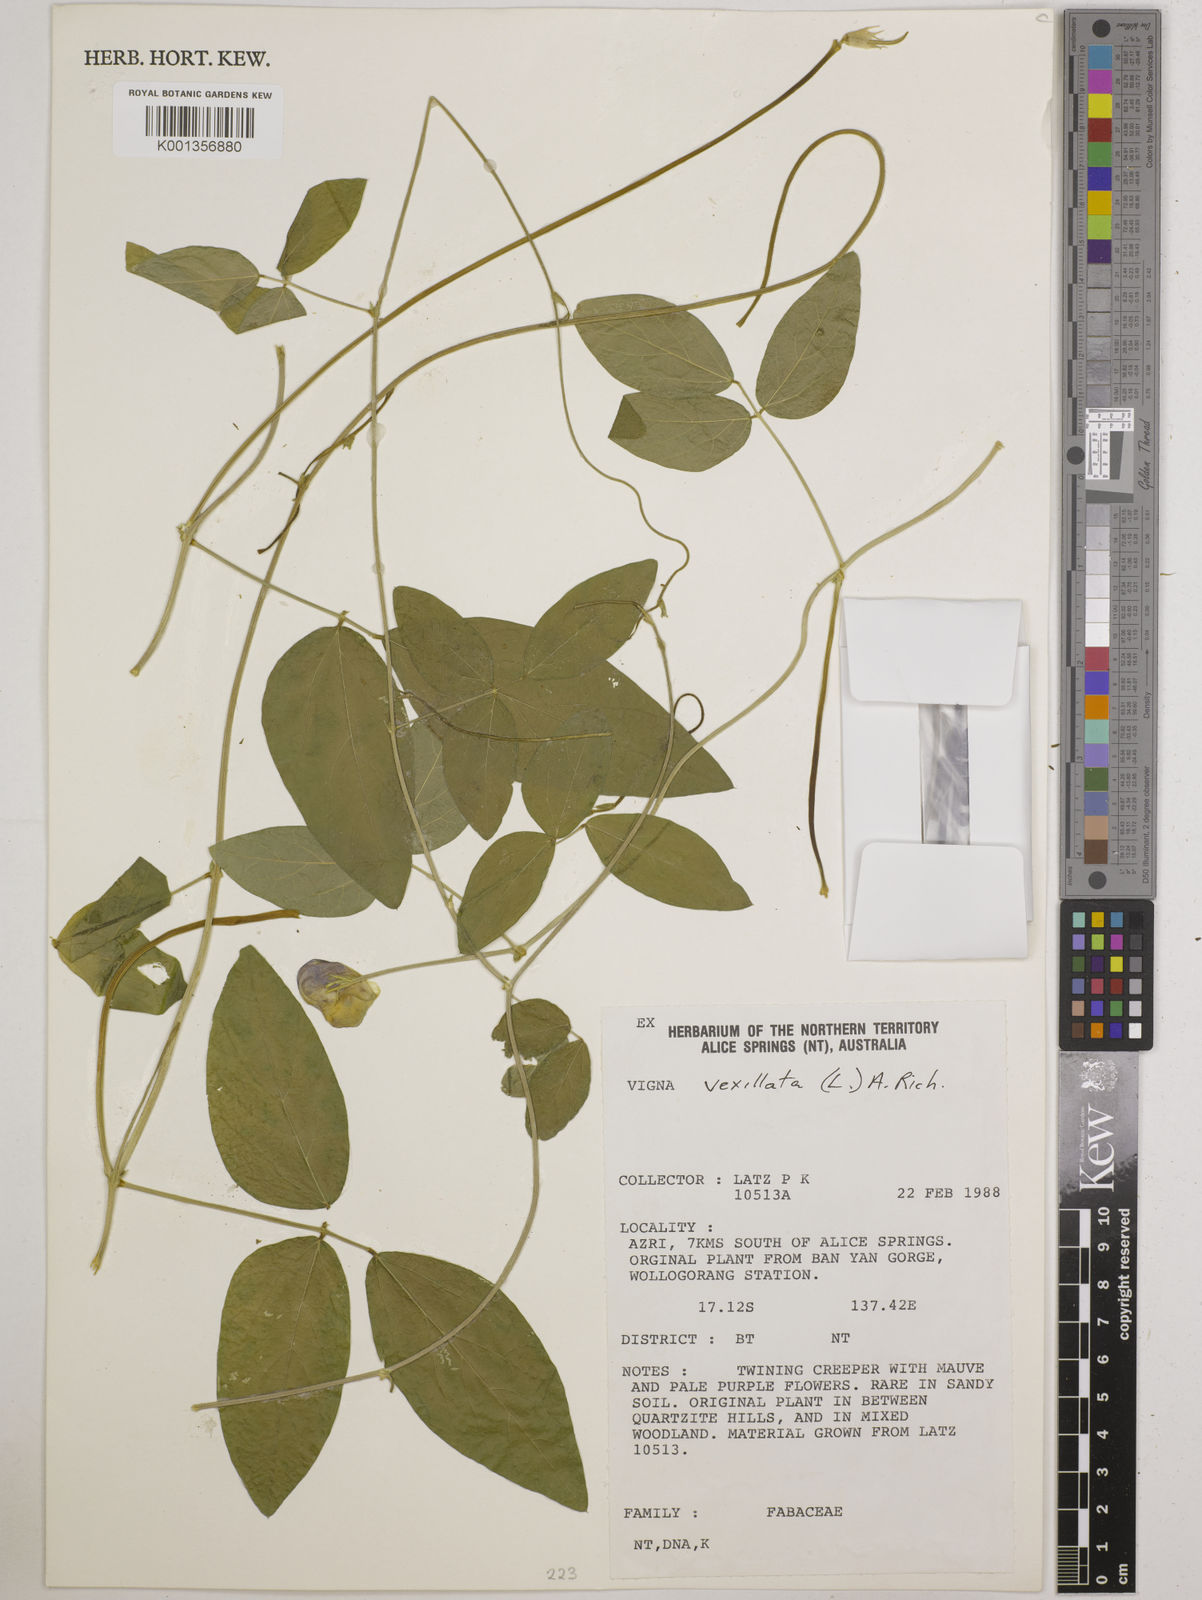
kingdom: Plantae
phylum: Tracheophyta
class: Magnoliopsida
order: Fabales
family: Fabaceae
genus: Vigna
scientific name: Vigna vexillata
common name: Zombi pea
